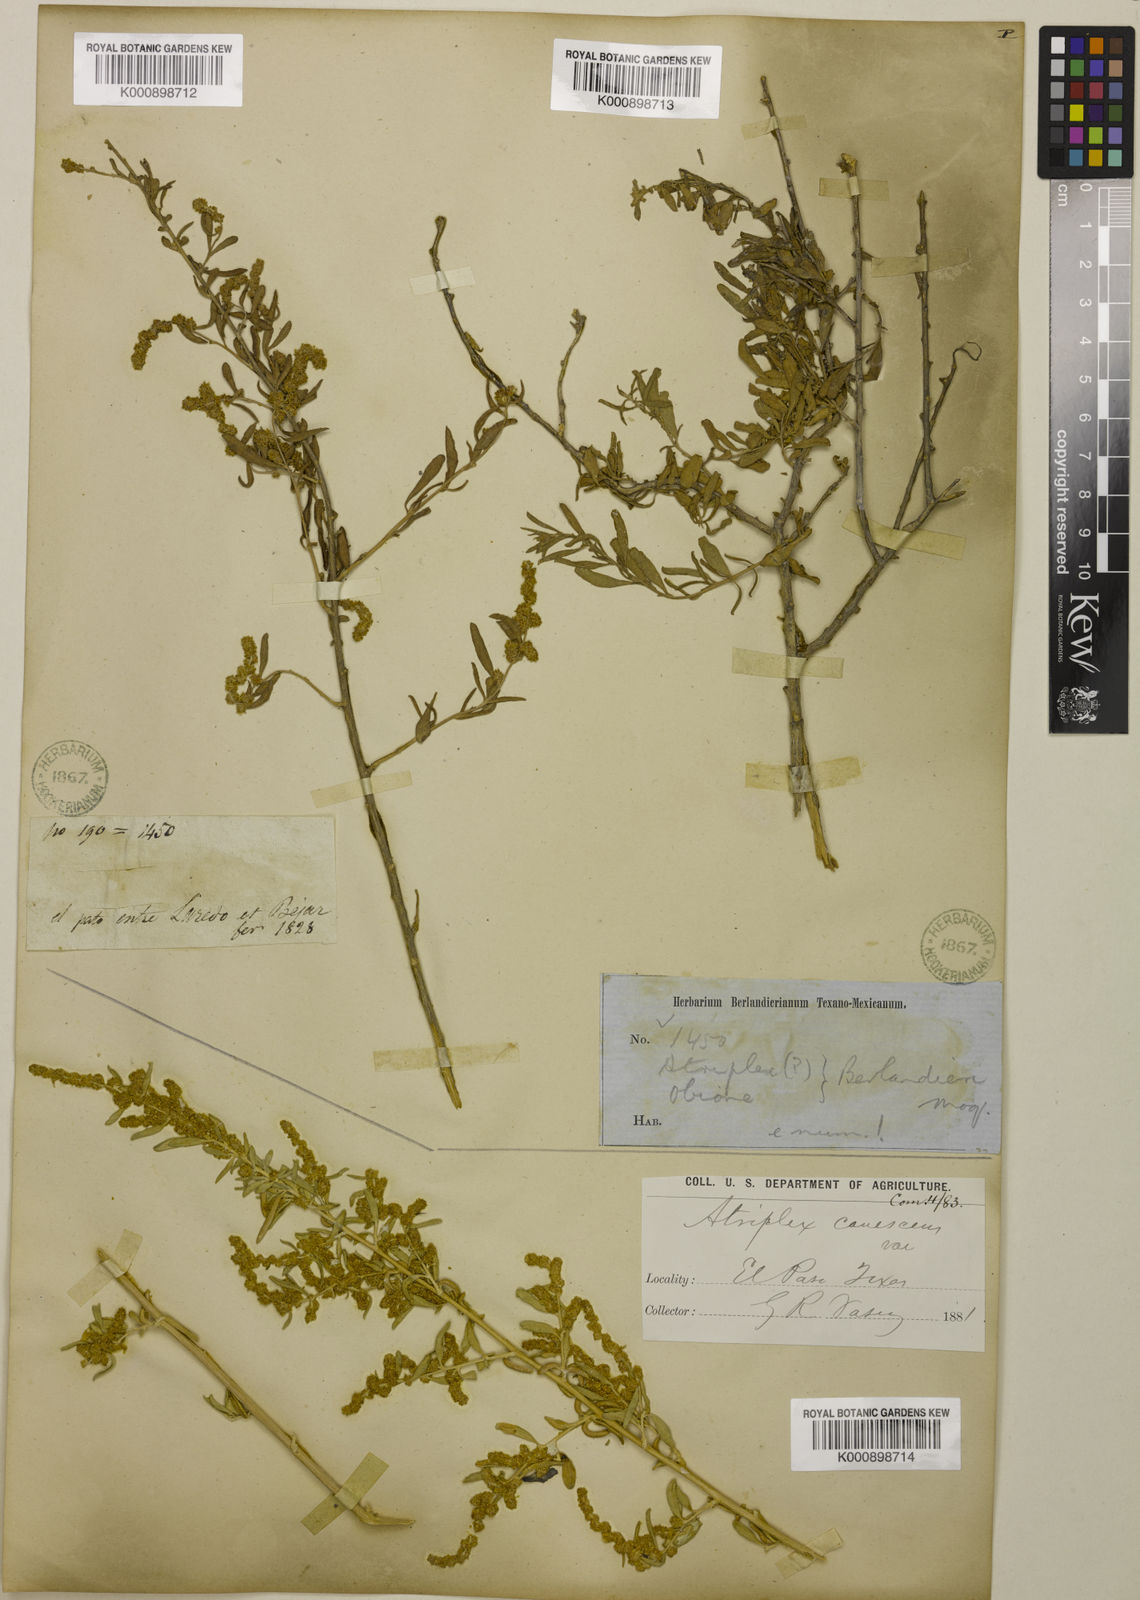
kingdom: Plantae
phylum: Tracheophyta
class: Magnoliopsida
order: Caryophyllales
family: Amaranthaceae
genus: Atriplex
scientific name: Atriplex canescens
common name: Four-wing saltbush
